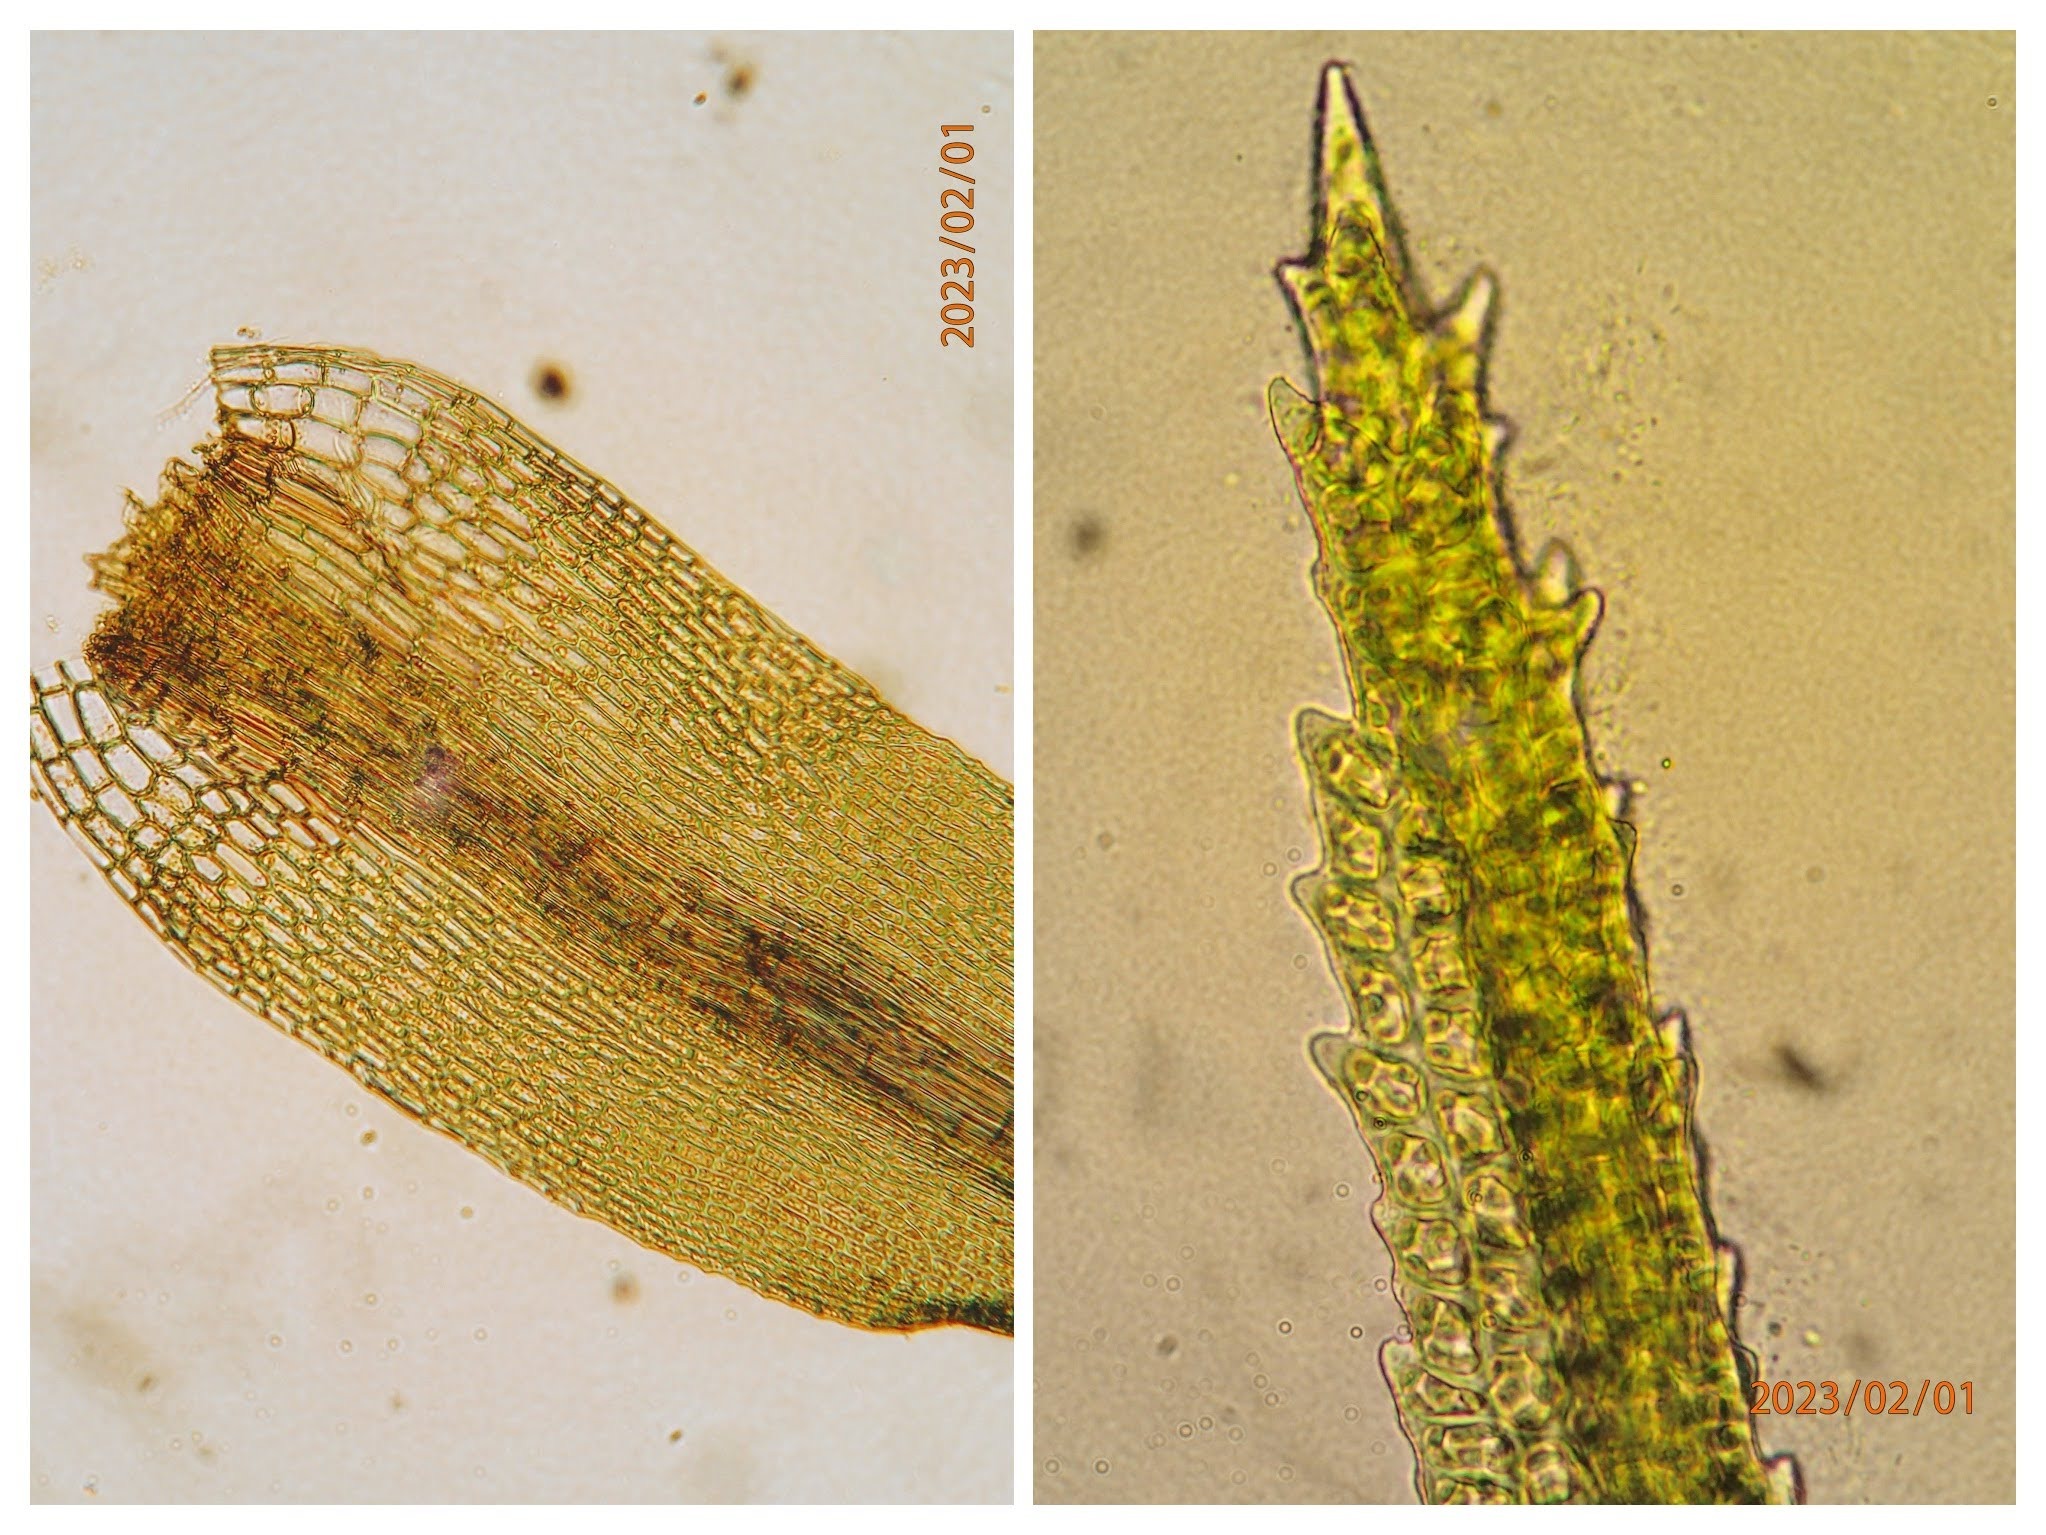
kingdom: Plantae
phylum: Bryophyta
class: Bryopsida
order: Dicranales
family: Dicranaceae
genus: Orthodicranum
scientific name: Orthodicranum montanum
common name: Tæt tyndvinge
